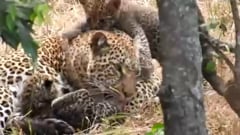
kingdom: Animalia
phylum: Chordata
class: Mammalia
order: Carnivora
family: Felidae
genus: Panthera
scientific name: Panthera pardus
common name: Leopard
